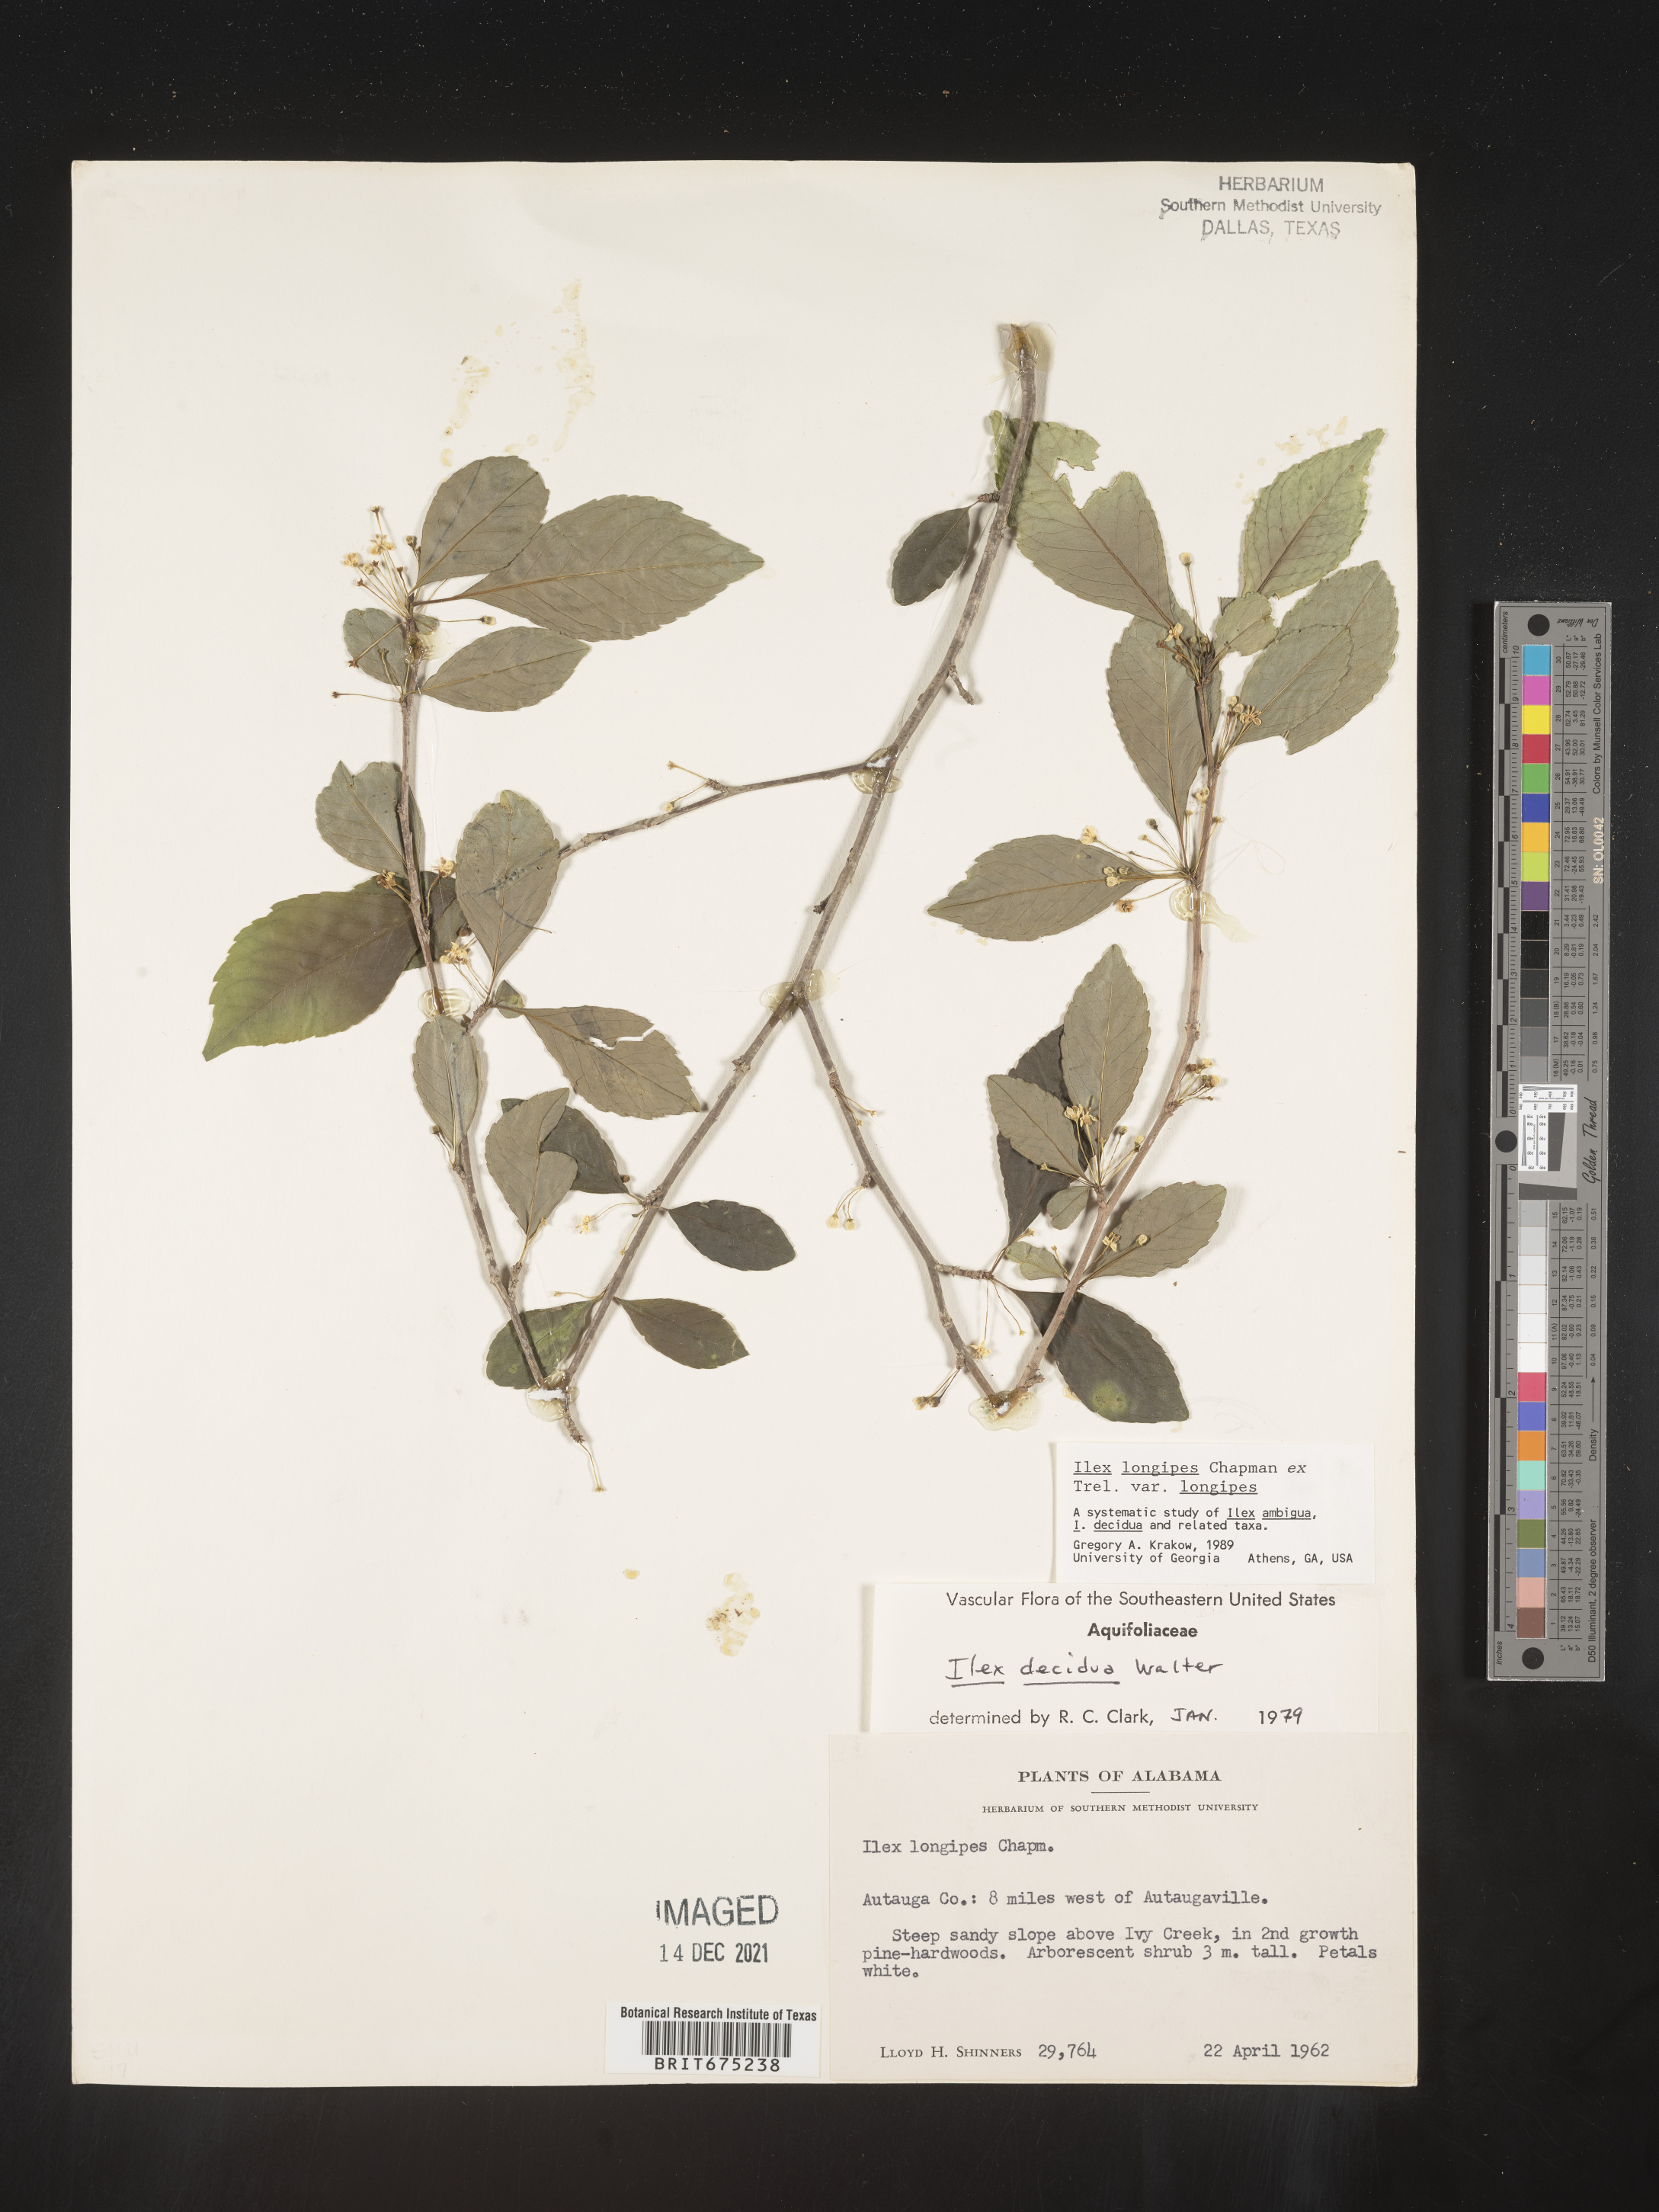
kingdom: Plantae
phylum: Tracheophyta
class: Magnoliopsida
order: Aquifoliales
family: Aquifoliaceae
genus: Ilex
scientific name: Ilex longipes
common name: Georgia holly
